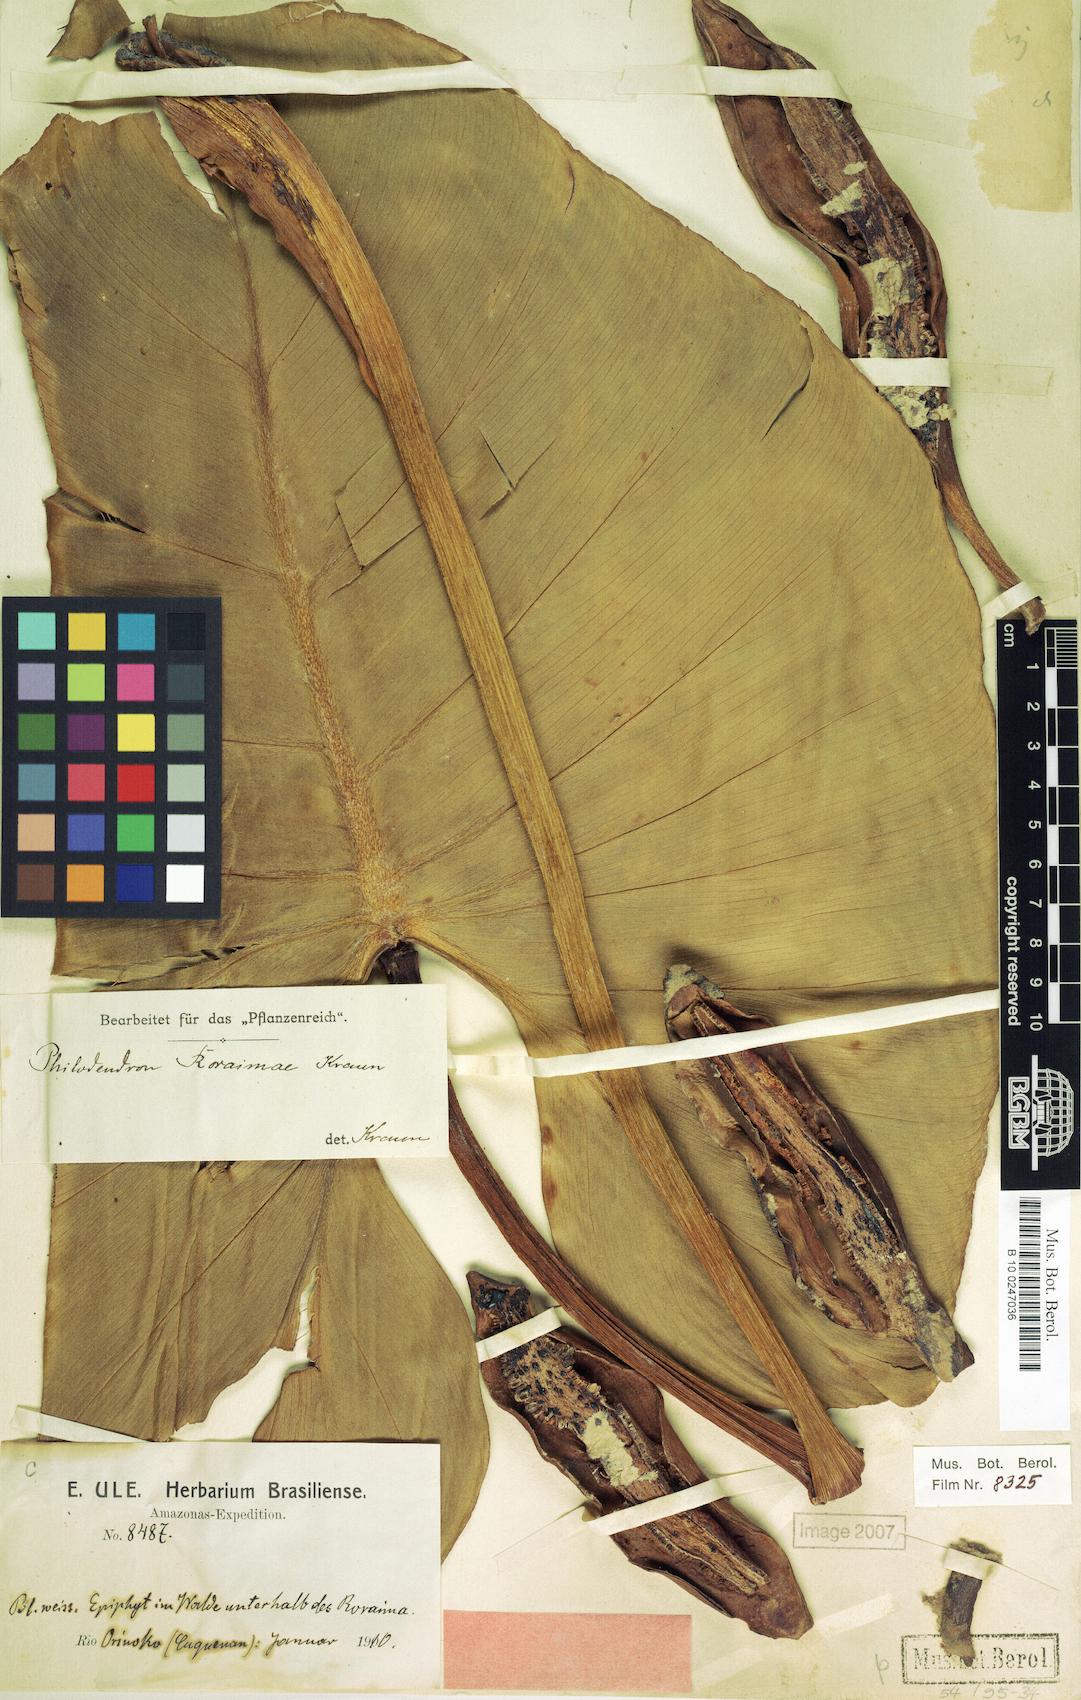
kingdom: Plantae
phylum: Tracheophyta
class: Liliopsida
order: Alismatales
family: Araceae
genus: Philodendron
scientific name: Philodendron roraimae
